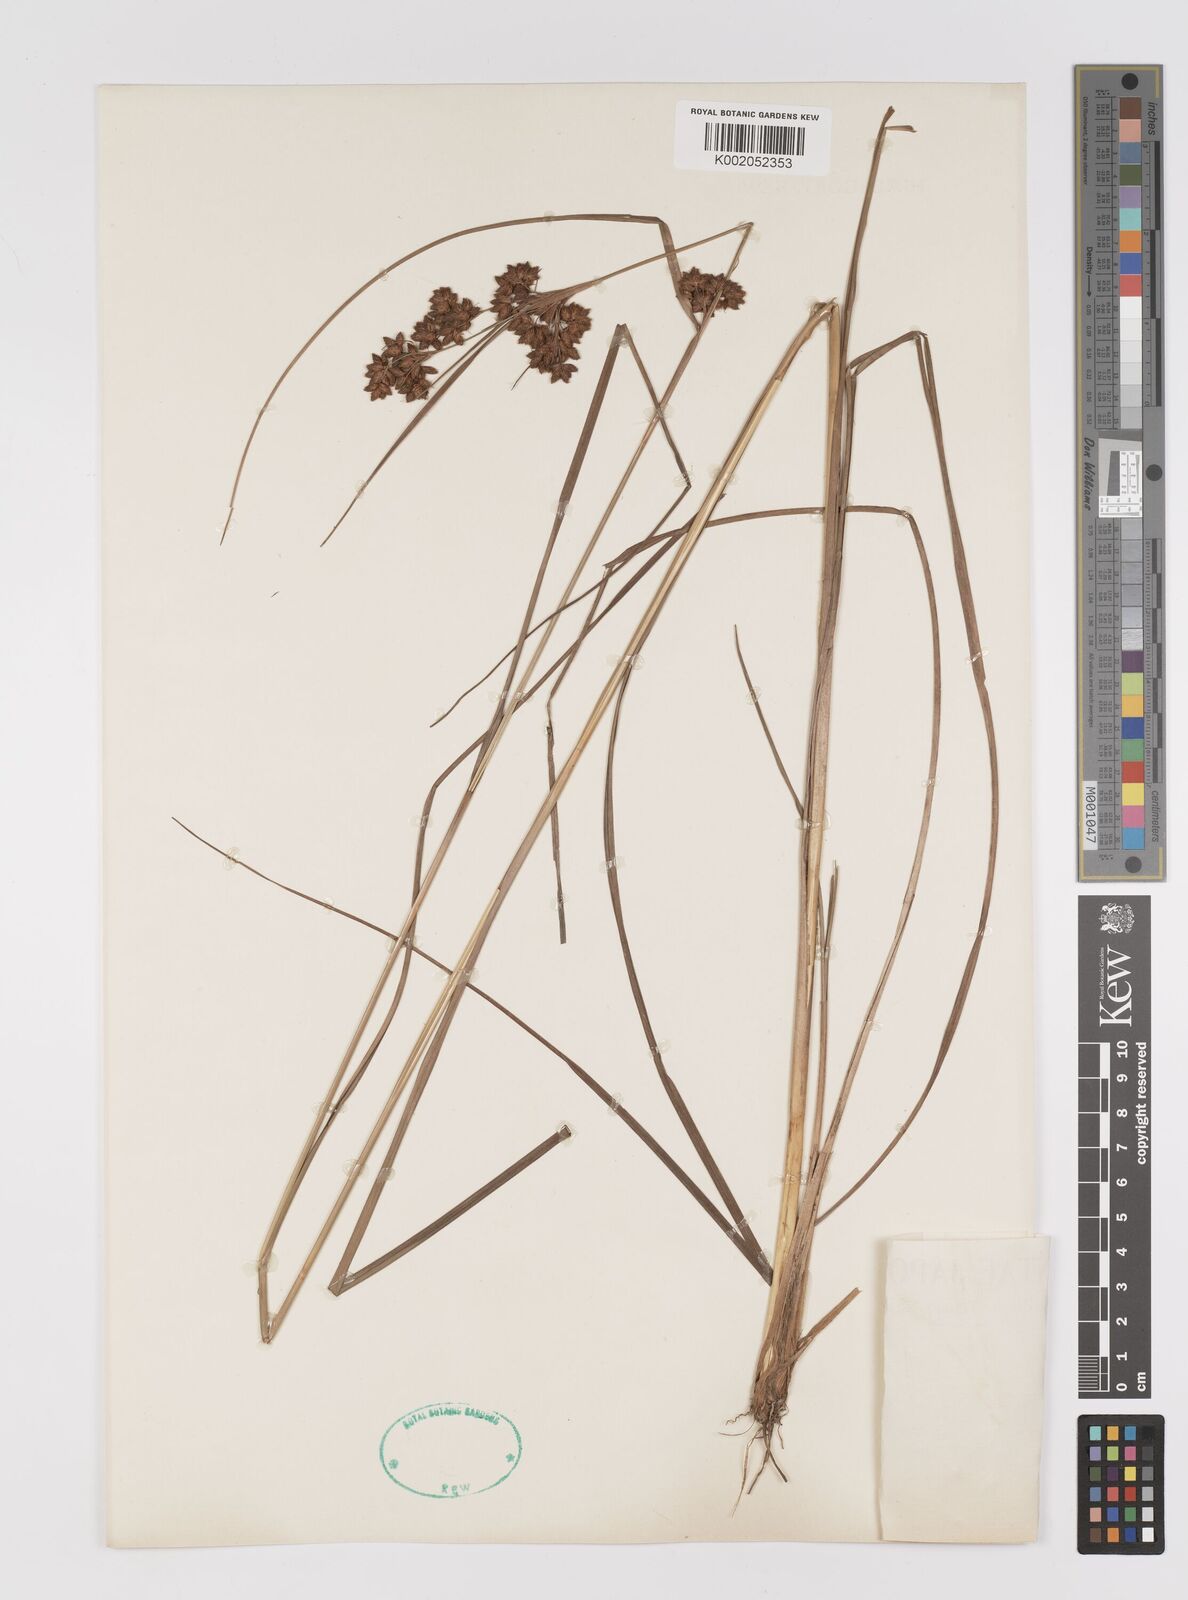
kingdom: Plantae
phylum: Tracheophyta
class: Liliopsida
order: Poales
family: Cyperaceae
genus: Scirpus
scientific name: Scirpus
